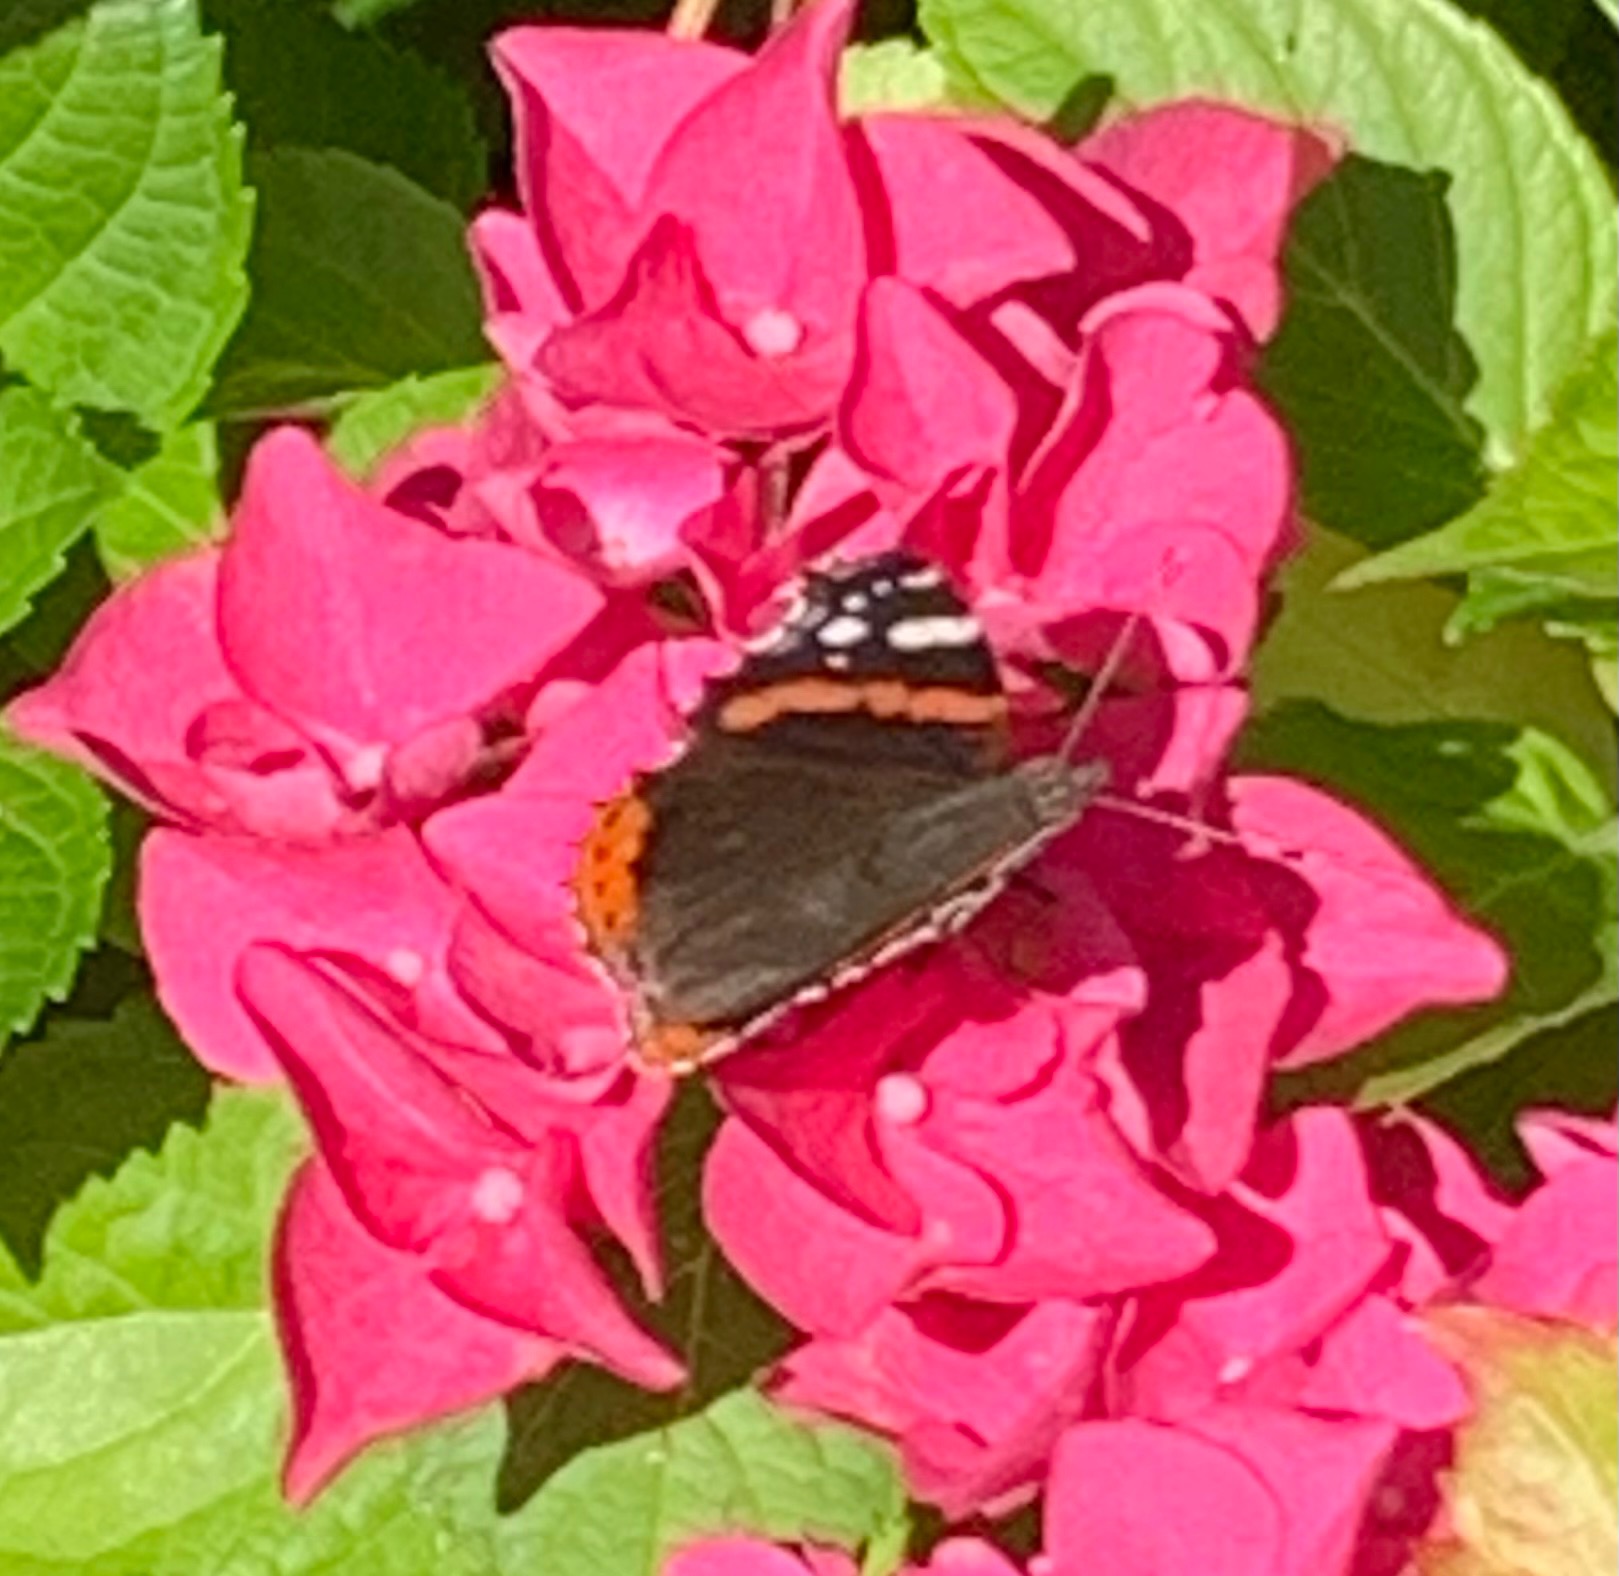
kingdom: Animalia
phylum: Arthropoda
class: Insecta
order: Lepidoptera
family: Nymphalidae
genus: Vanessa
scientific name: Vanessa atalanta
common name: Admiral
